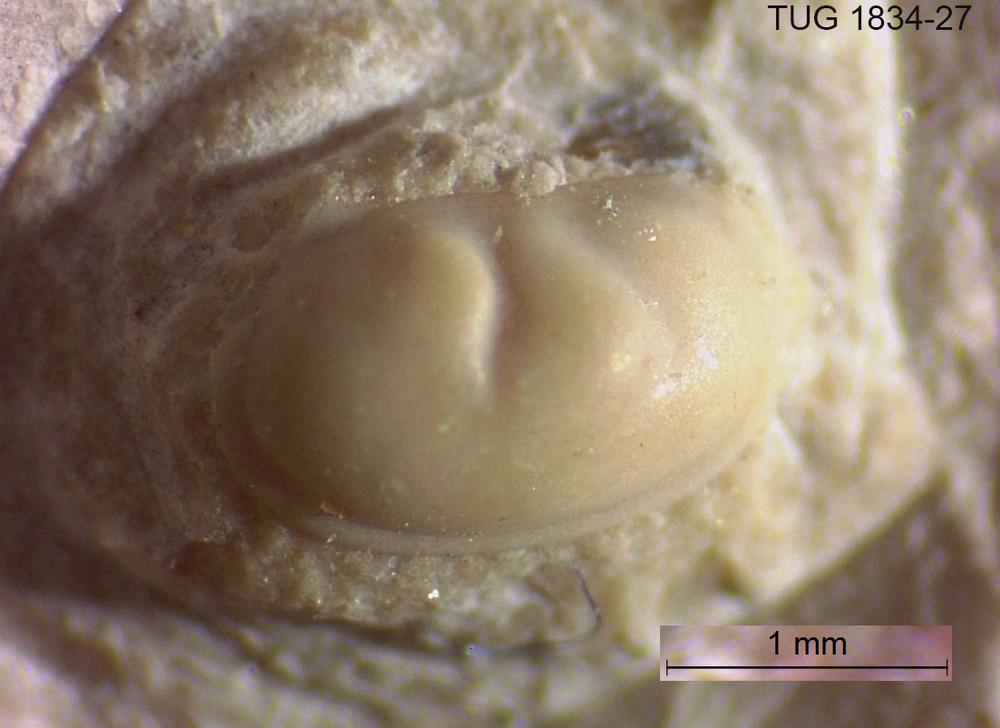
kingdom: Animalia
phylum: Arthropoda
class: Ostracoda
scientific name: Ostracoda
